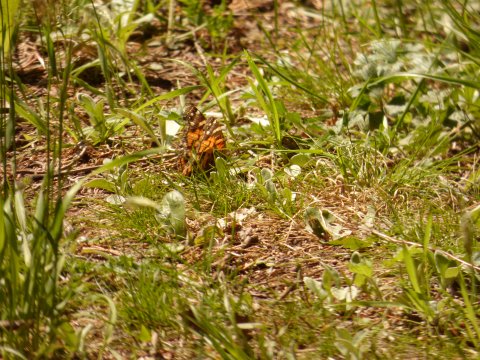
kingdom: Animalia
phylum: Arthropoda
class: Insecta
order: Lepidoptera
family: Nymphalidae
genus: Vanessa
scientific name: Vanessa virginiensis
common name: American Lady
